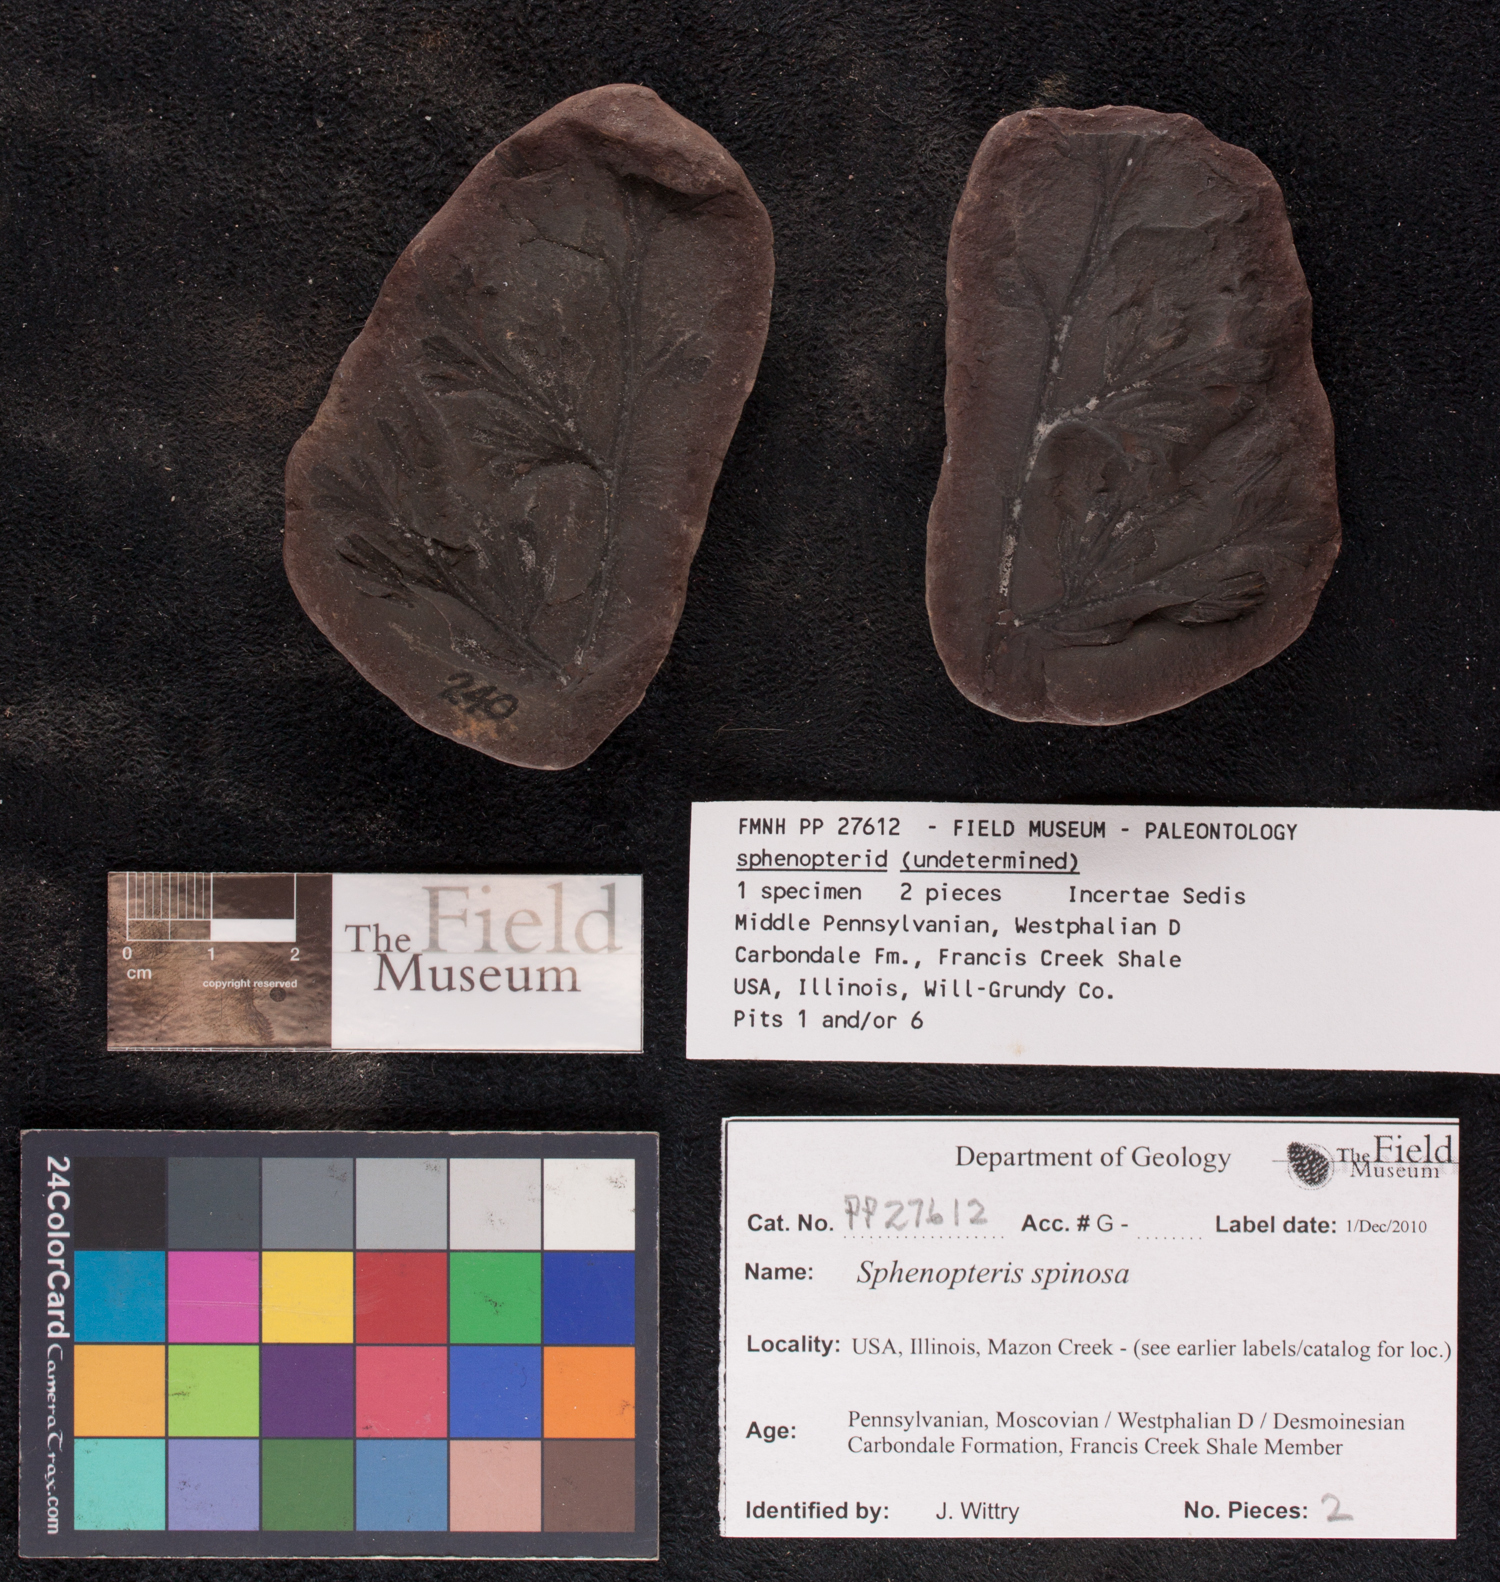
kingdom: Plantae
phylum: Tracheophyta
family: Lyginopteridaceae
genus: Sphenopteris
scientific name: Sphenopteris
